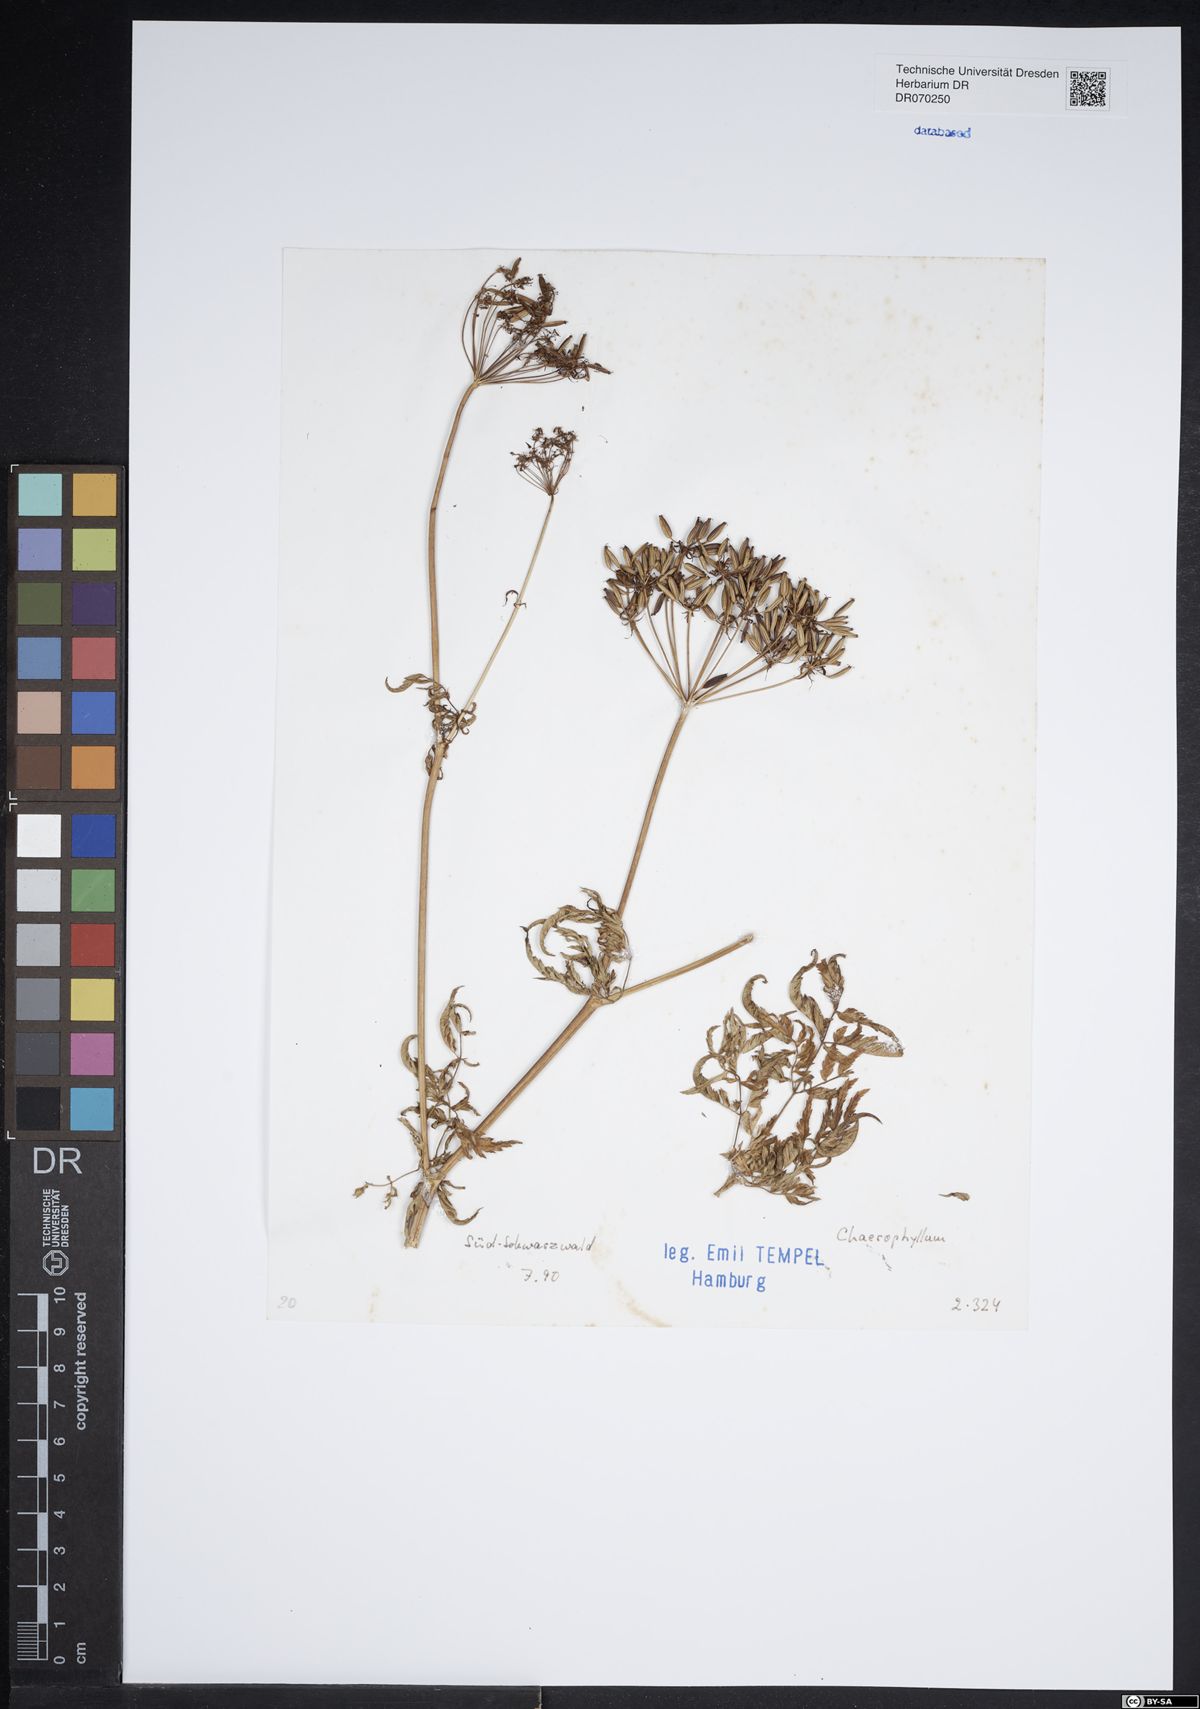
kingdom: Plantae
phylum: Tracheophyta
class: Magnoliopsida
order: Apiales
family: Apiaceae
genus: Chaerophyllum
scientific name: Chaerophyllum
